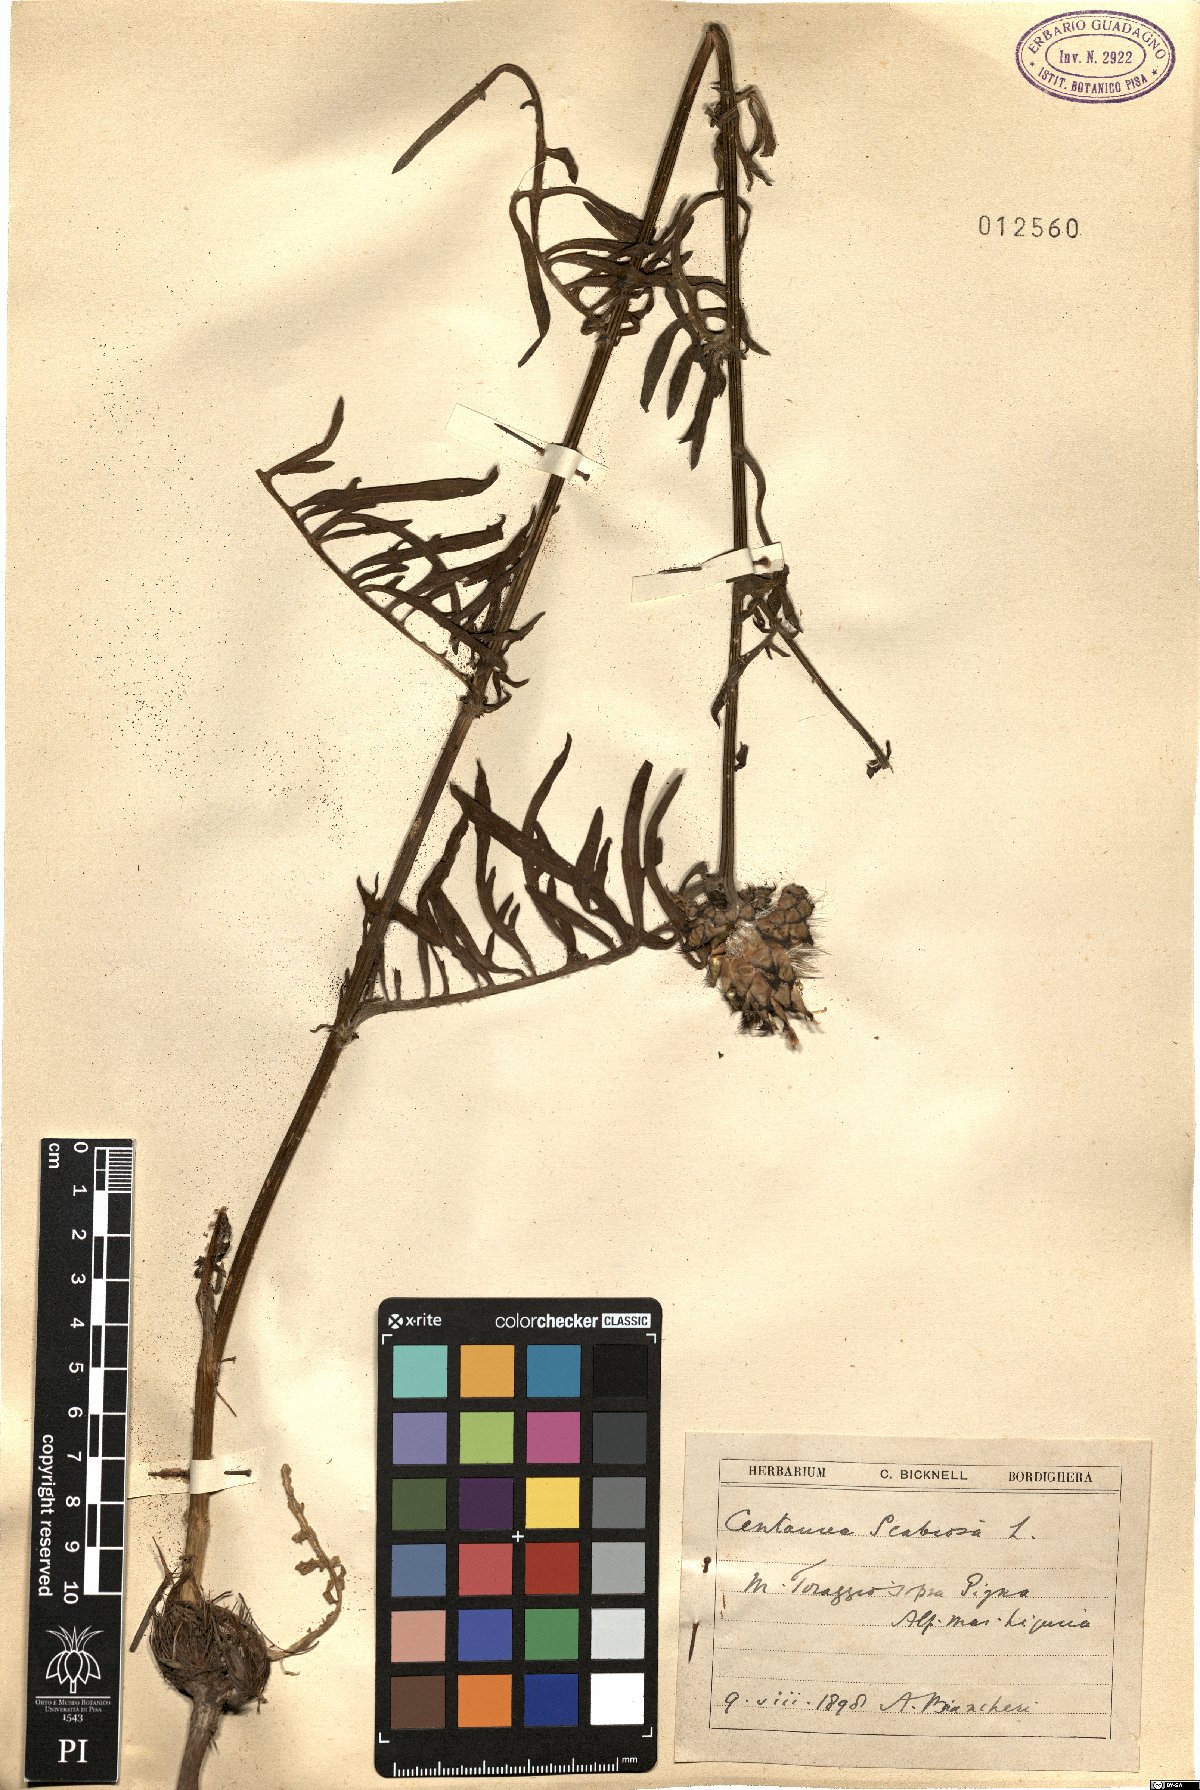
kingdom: Plantae
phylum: Tracheophyta
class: Magnoliopsida
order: Asterales
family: Asteraceae
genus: Centaurea
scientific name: Centaurea scabiosa
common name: Greater knapweed
